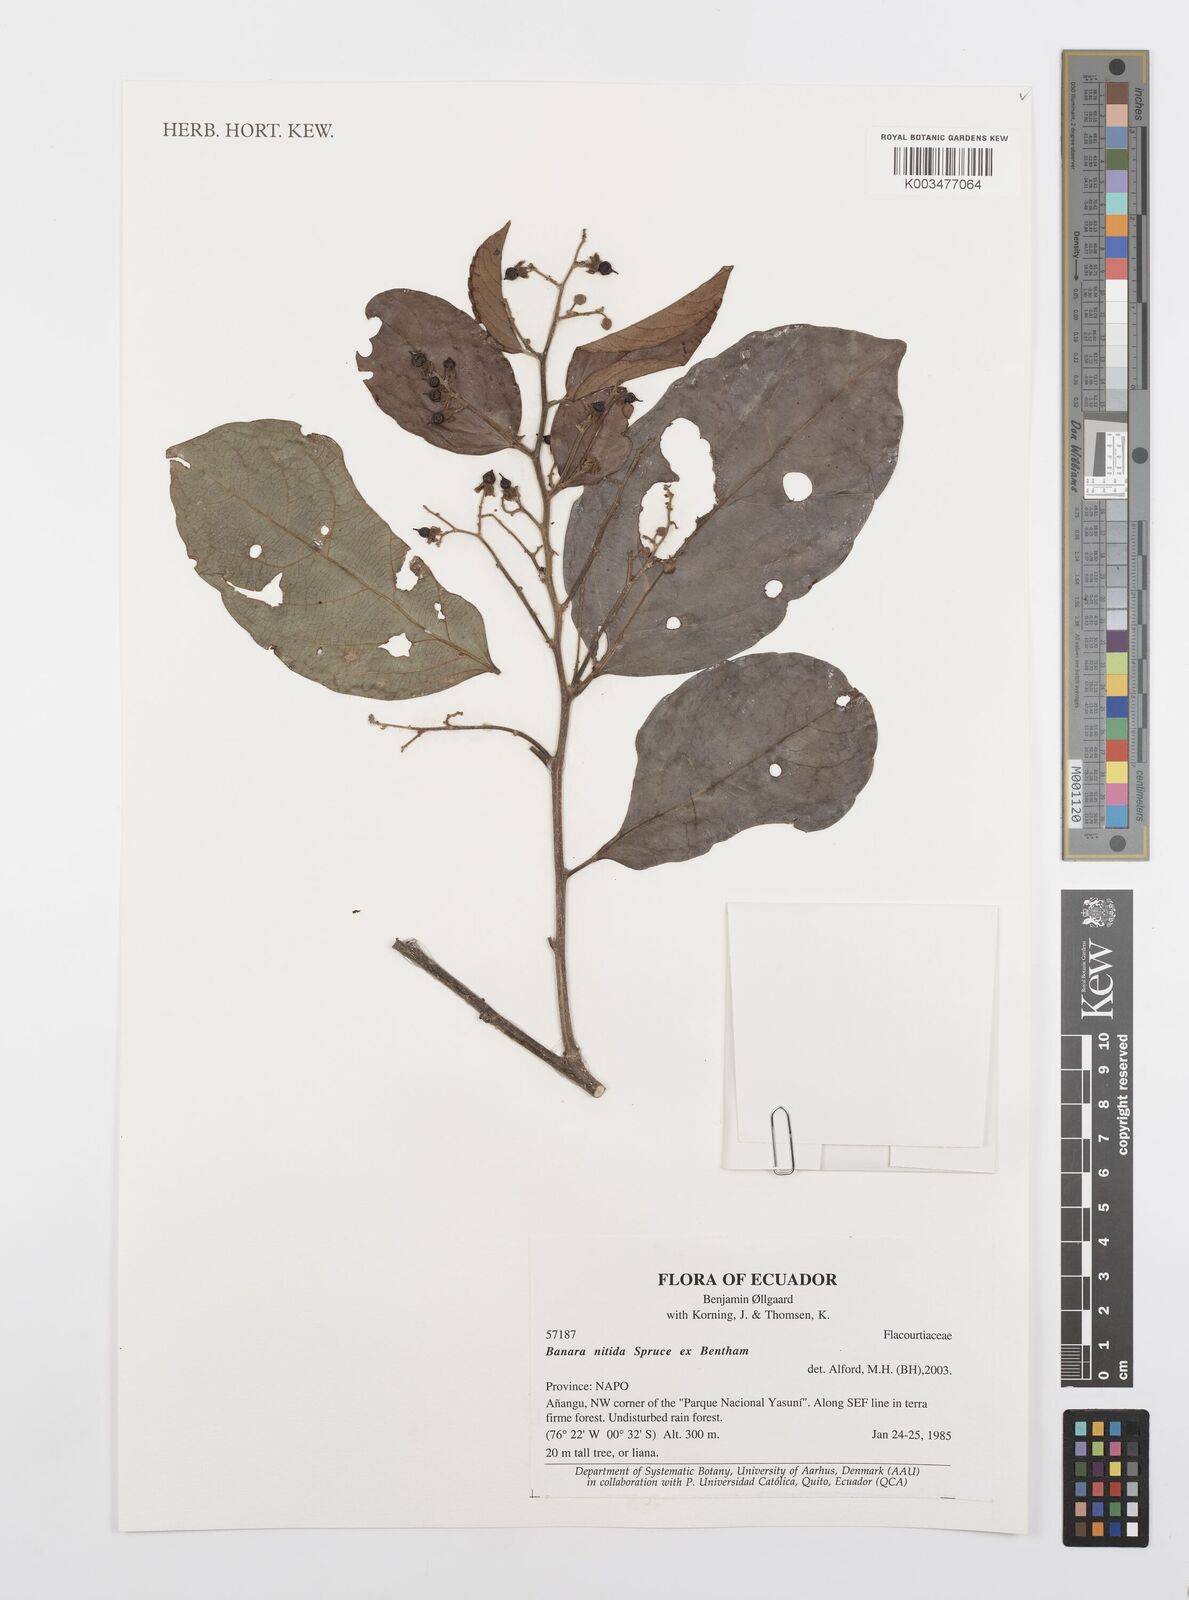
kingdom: Plantae
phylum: Tracheophyta
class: Magnoliopsida
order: Malpighiales
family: Salicaceae
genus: Banara
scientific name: Banara nitida
